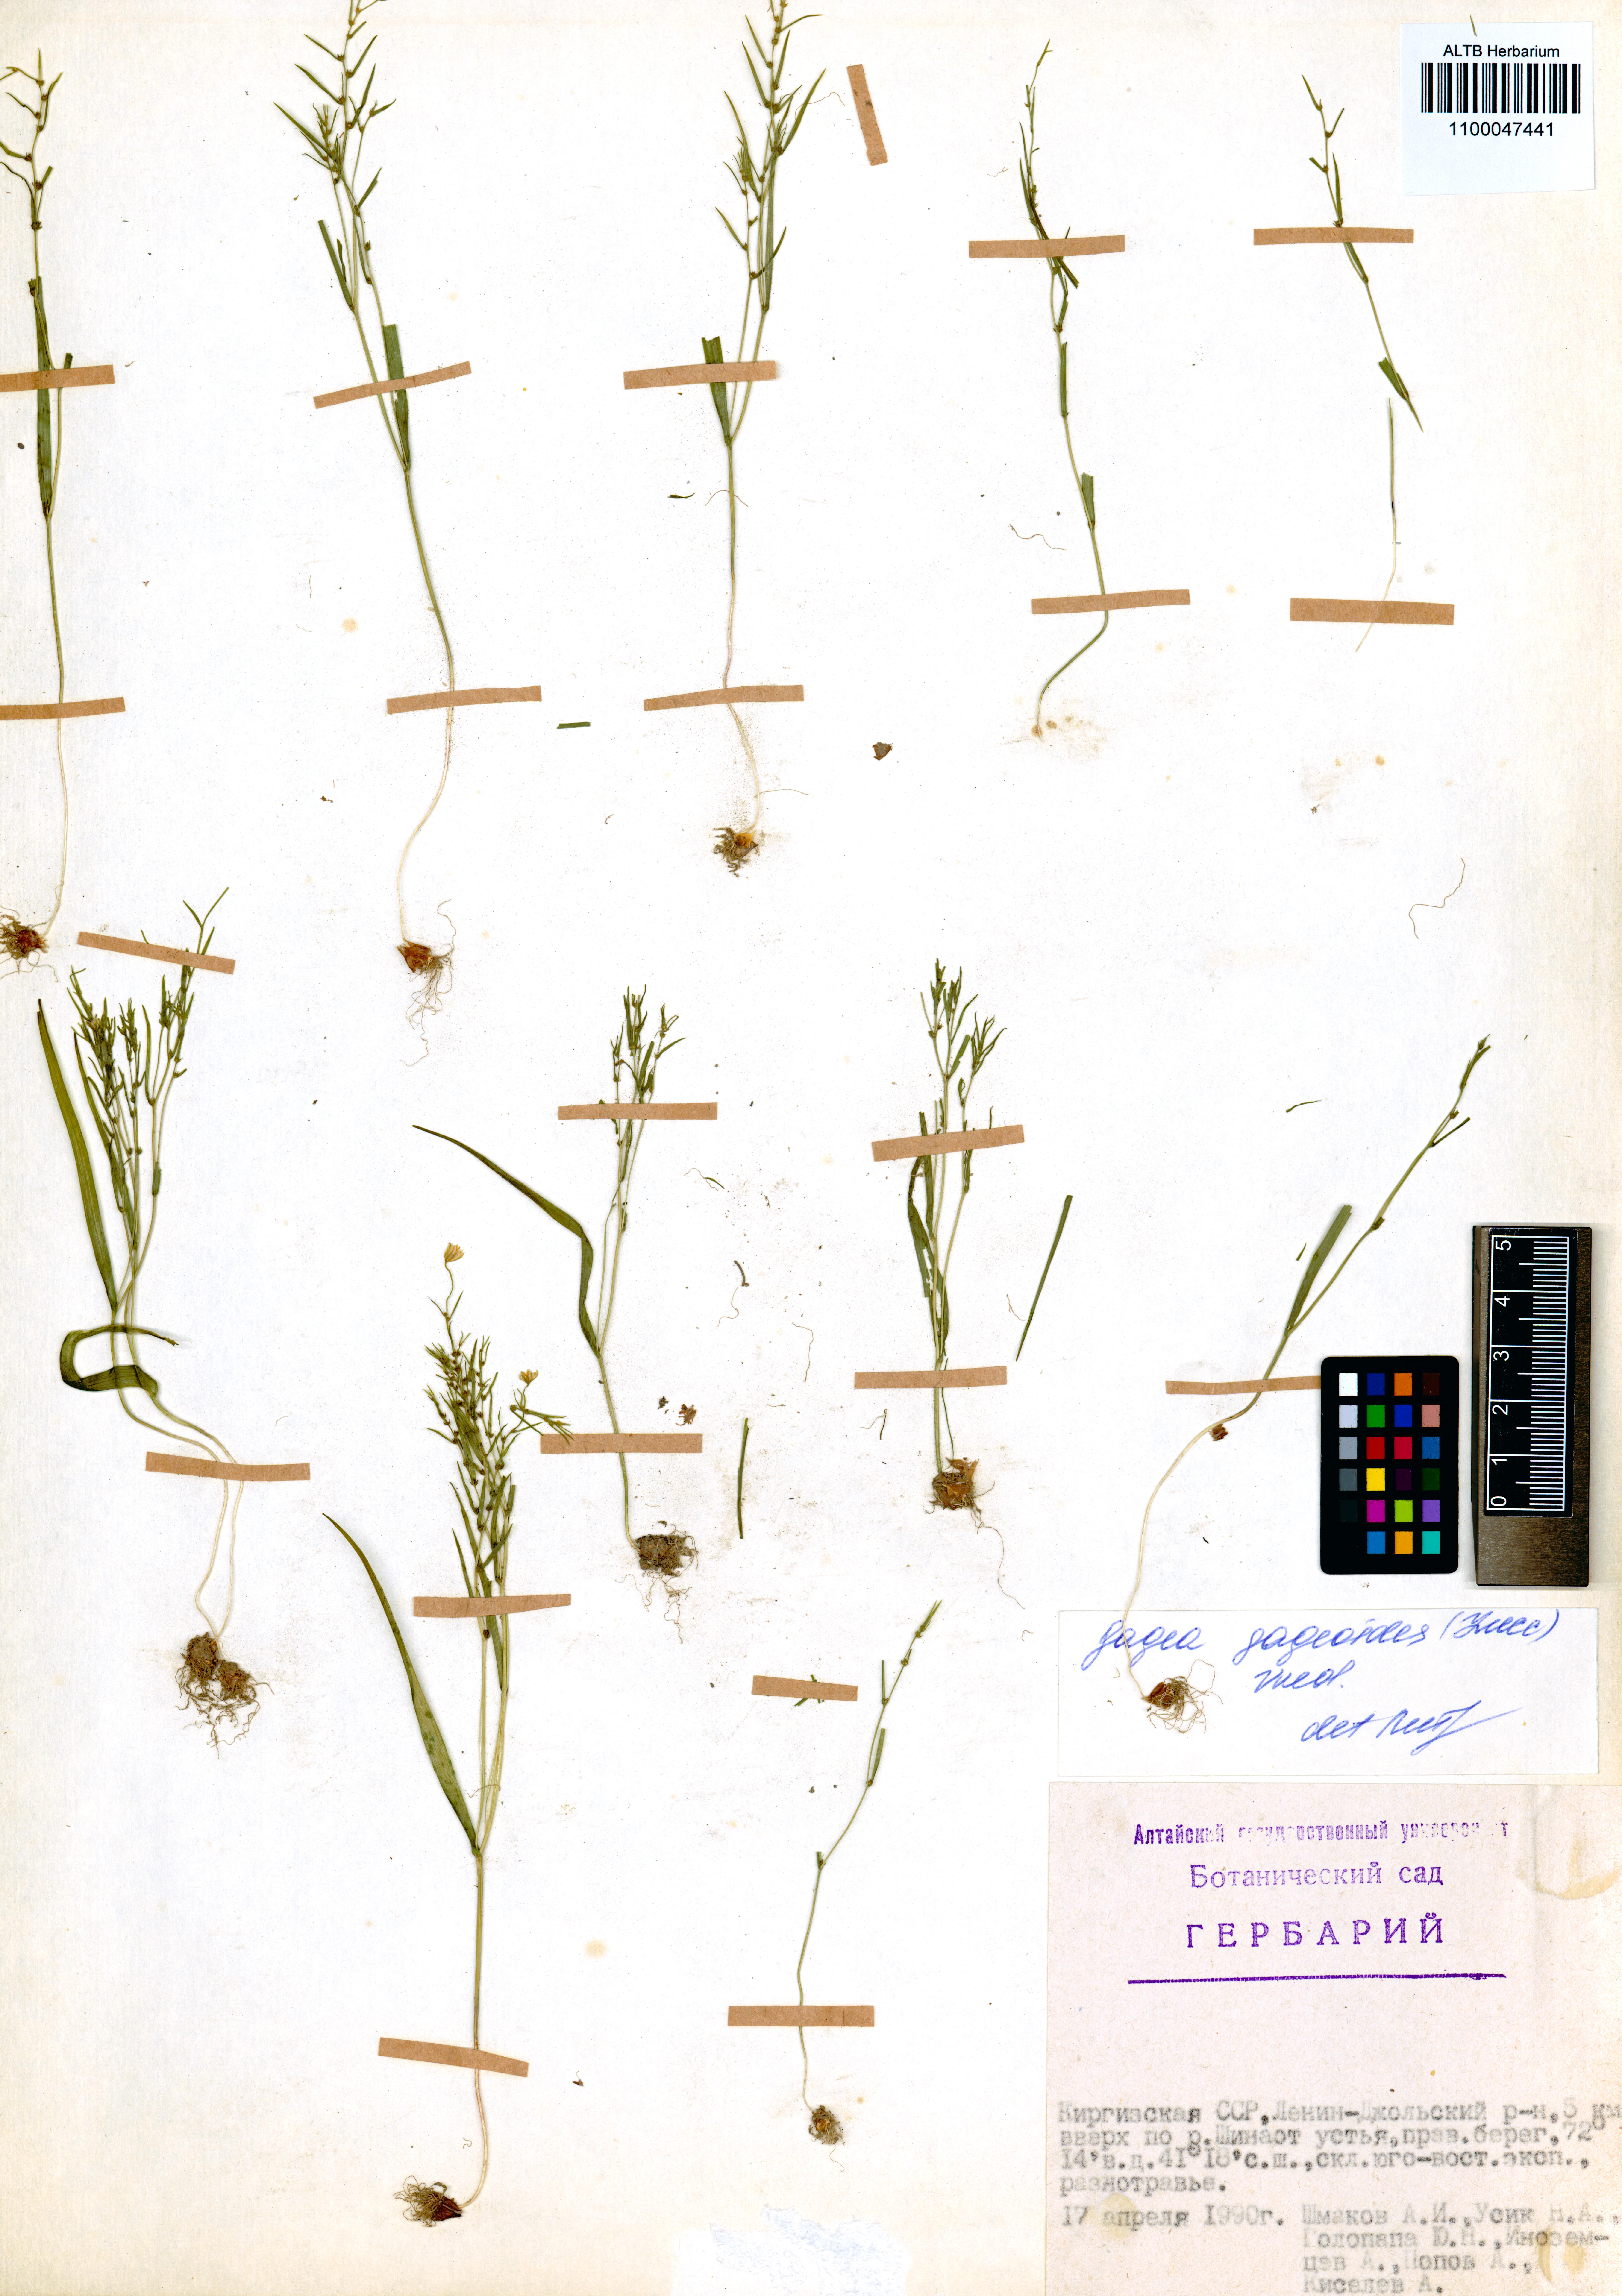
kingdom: Plantae
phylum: Tracheophyta
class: Liliopsida
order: Liliales
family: Liliaceae
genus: Gagea
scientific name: Gagea gageoides
